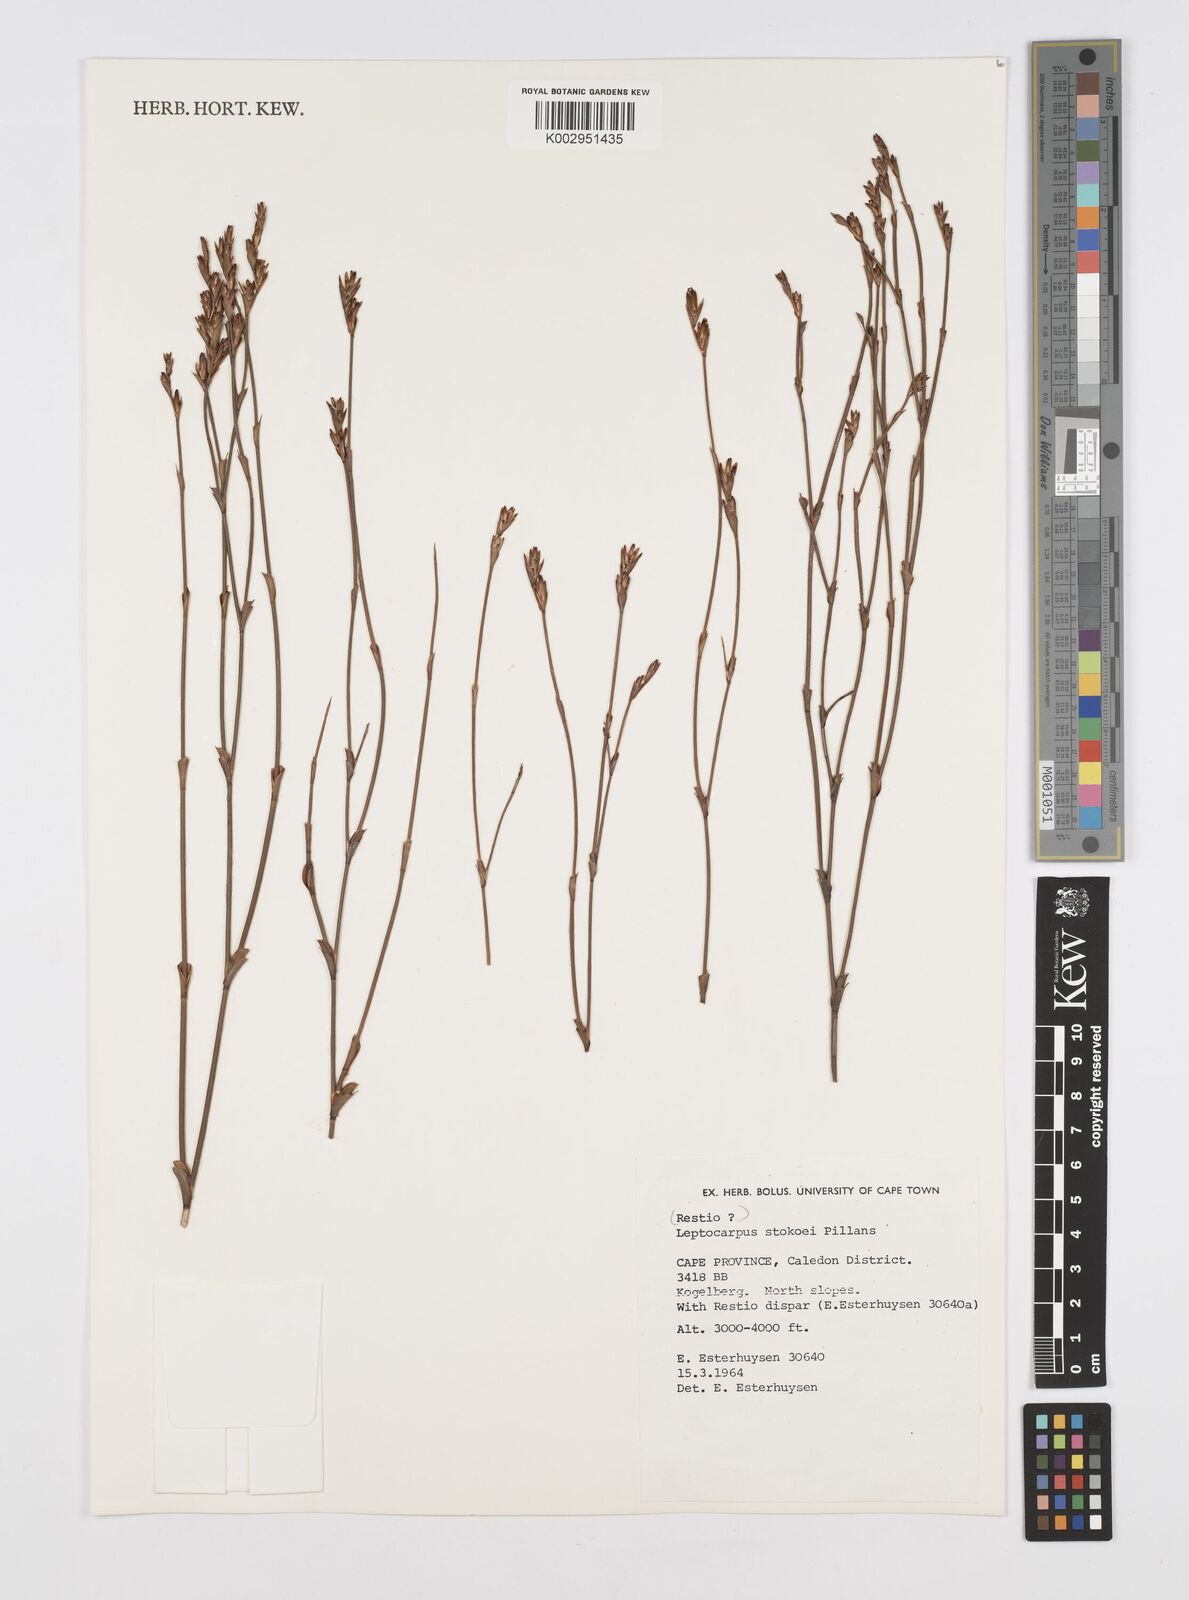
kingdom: Plantae
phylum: Tracheophyta
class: Liliopsida
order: Poales
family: Restionaceae
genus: Restio
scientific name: Restio pillansii
